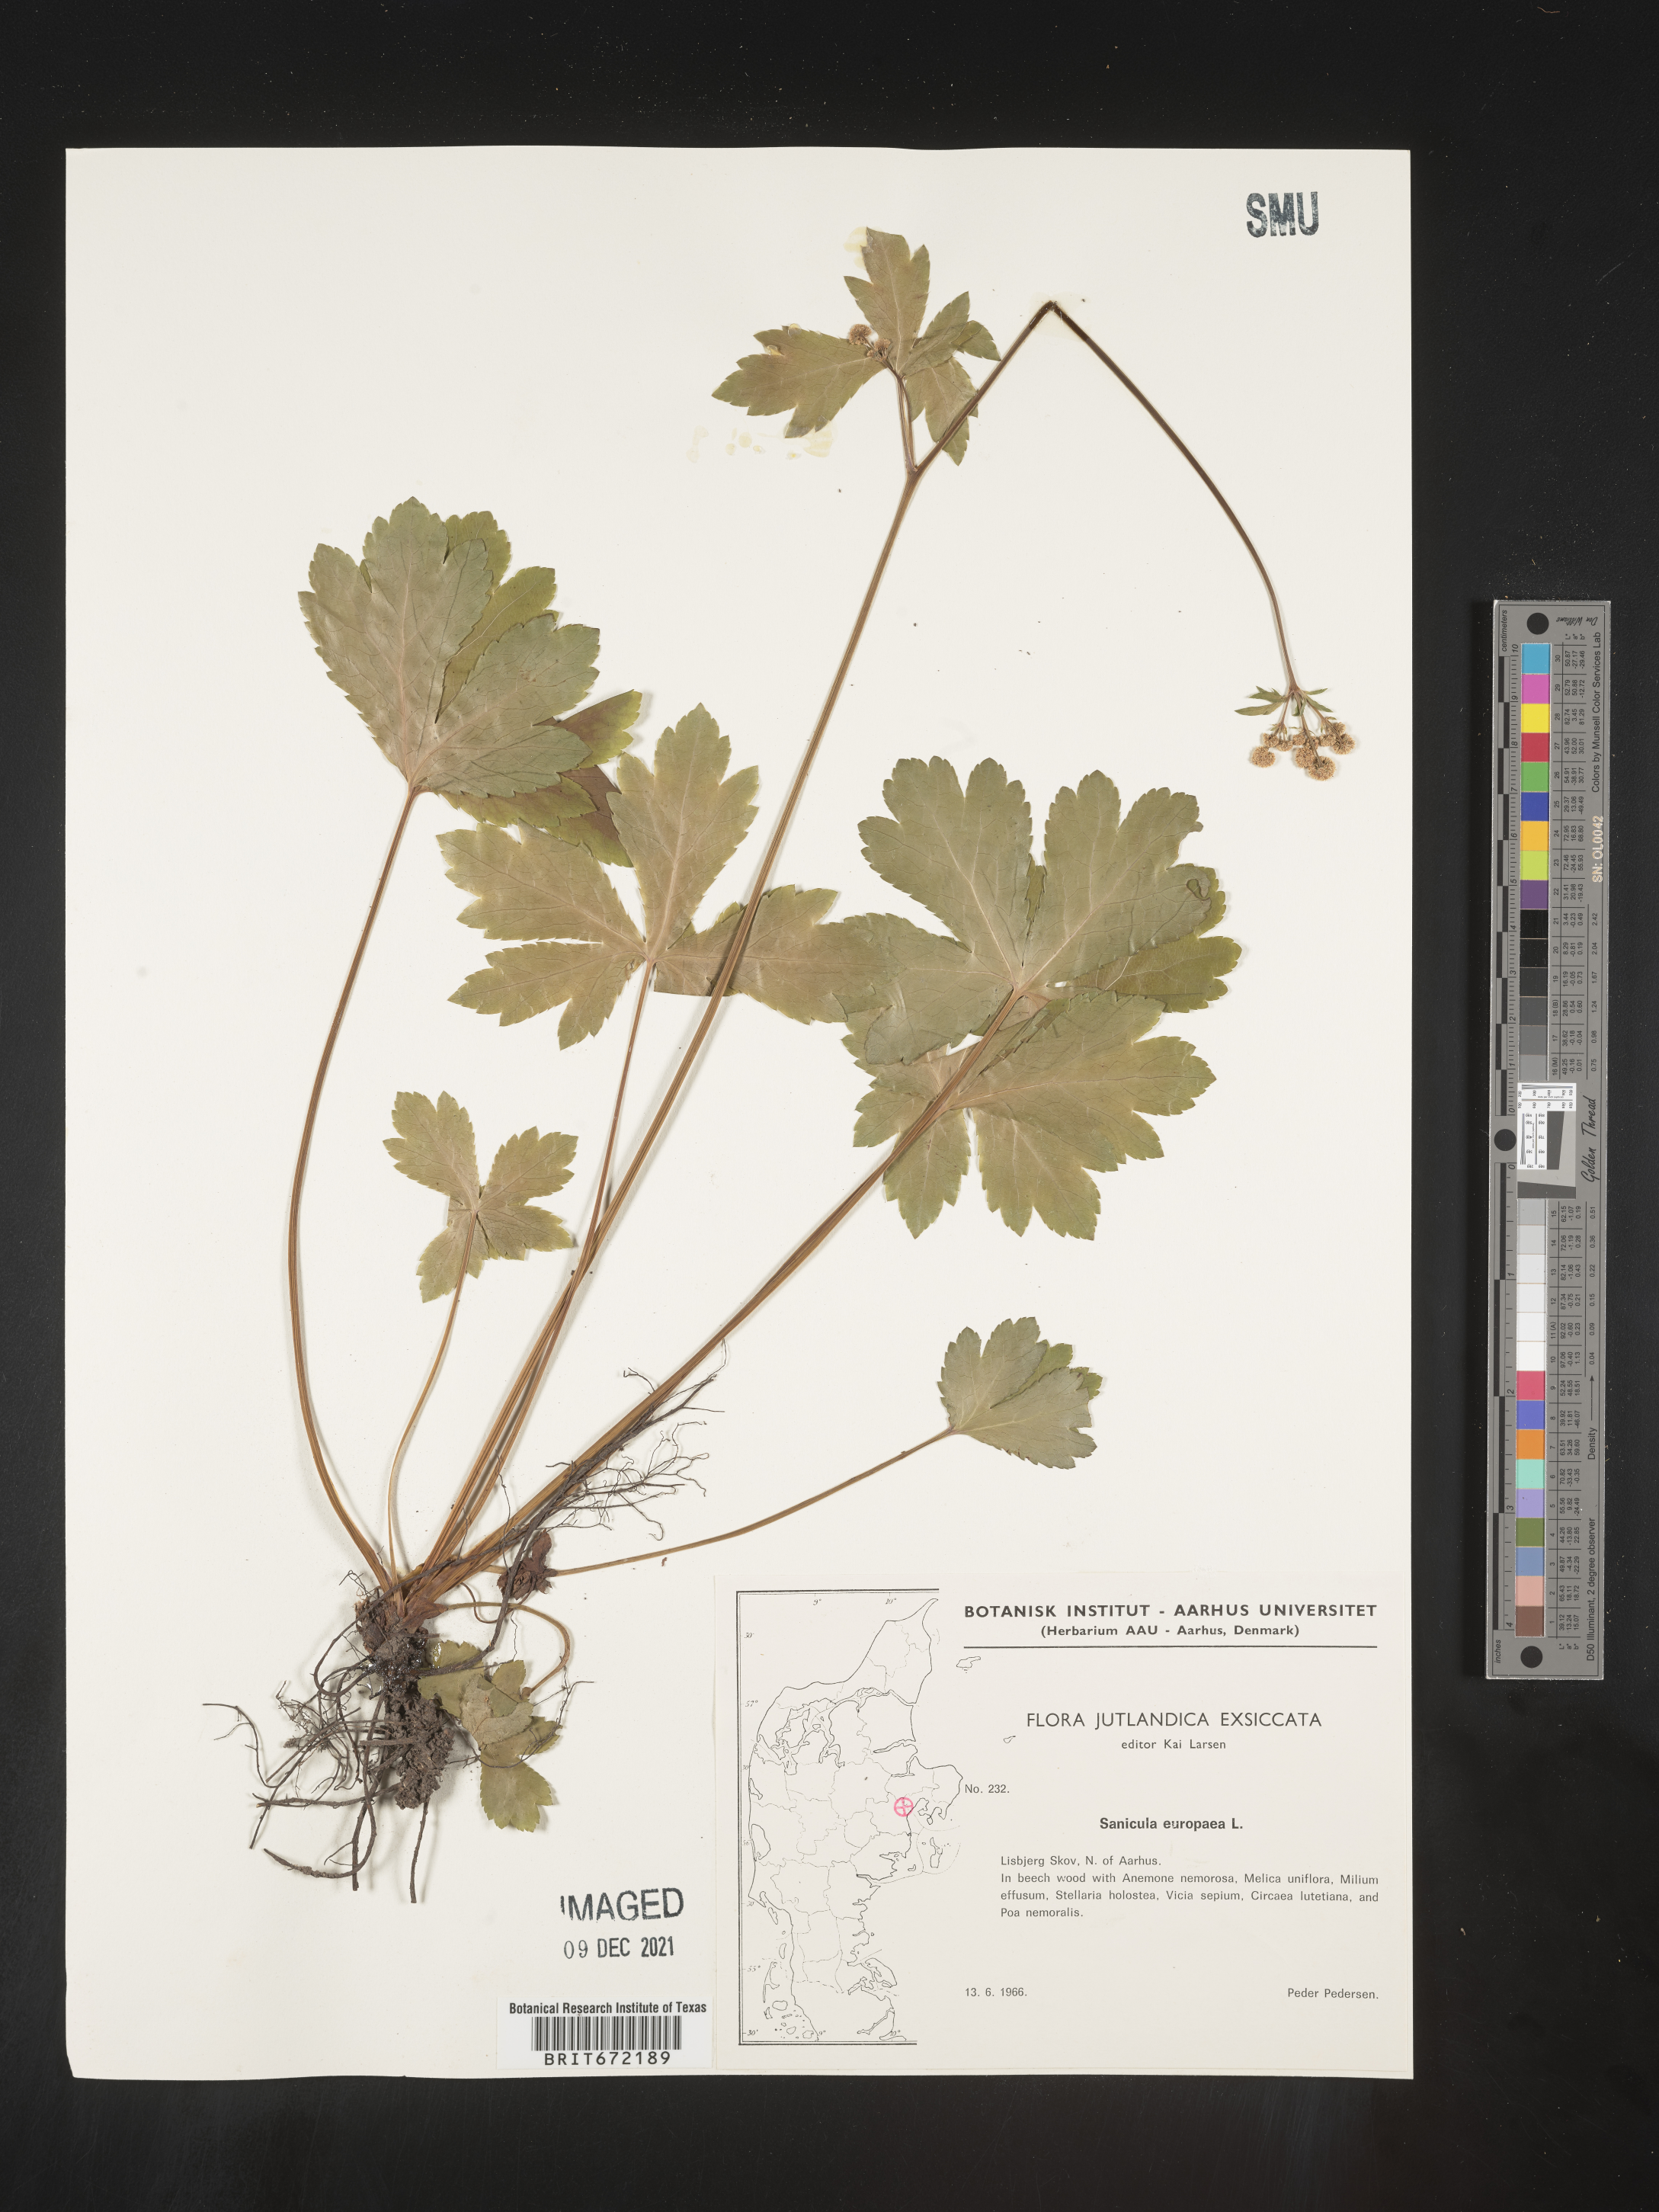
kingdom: Plantae
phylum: Tracheophyta
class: Magnoliopsida
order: Apiales
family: Apiaceae
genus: Sanicula
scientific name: Sanicula
